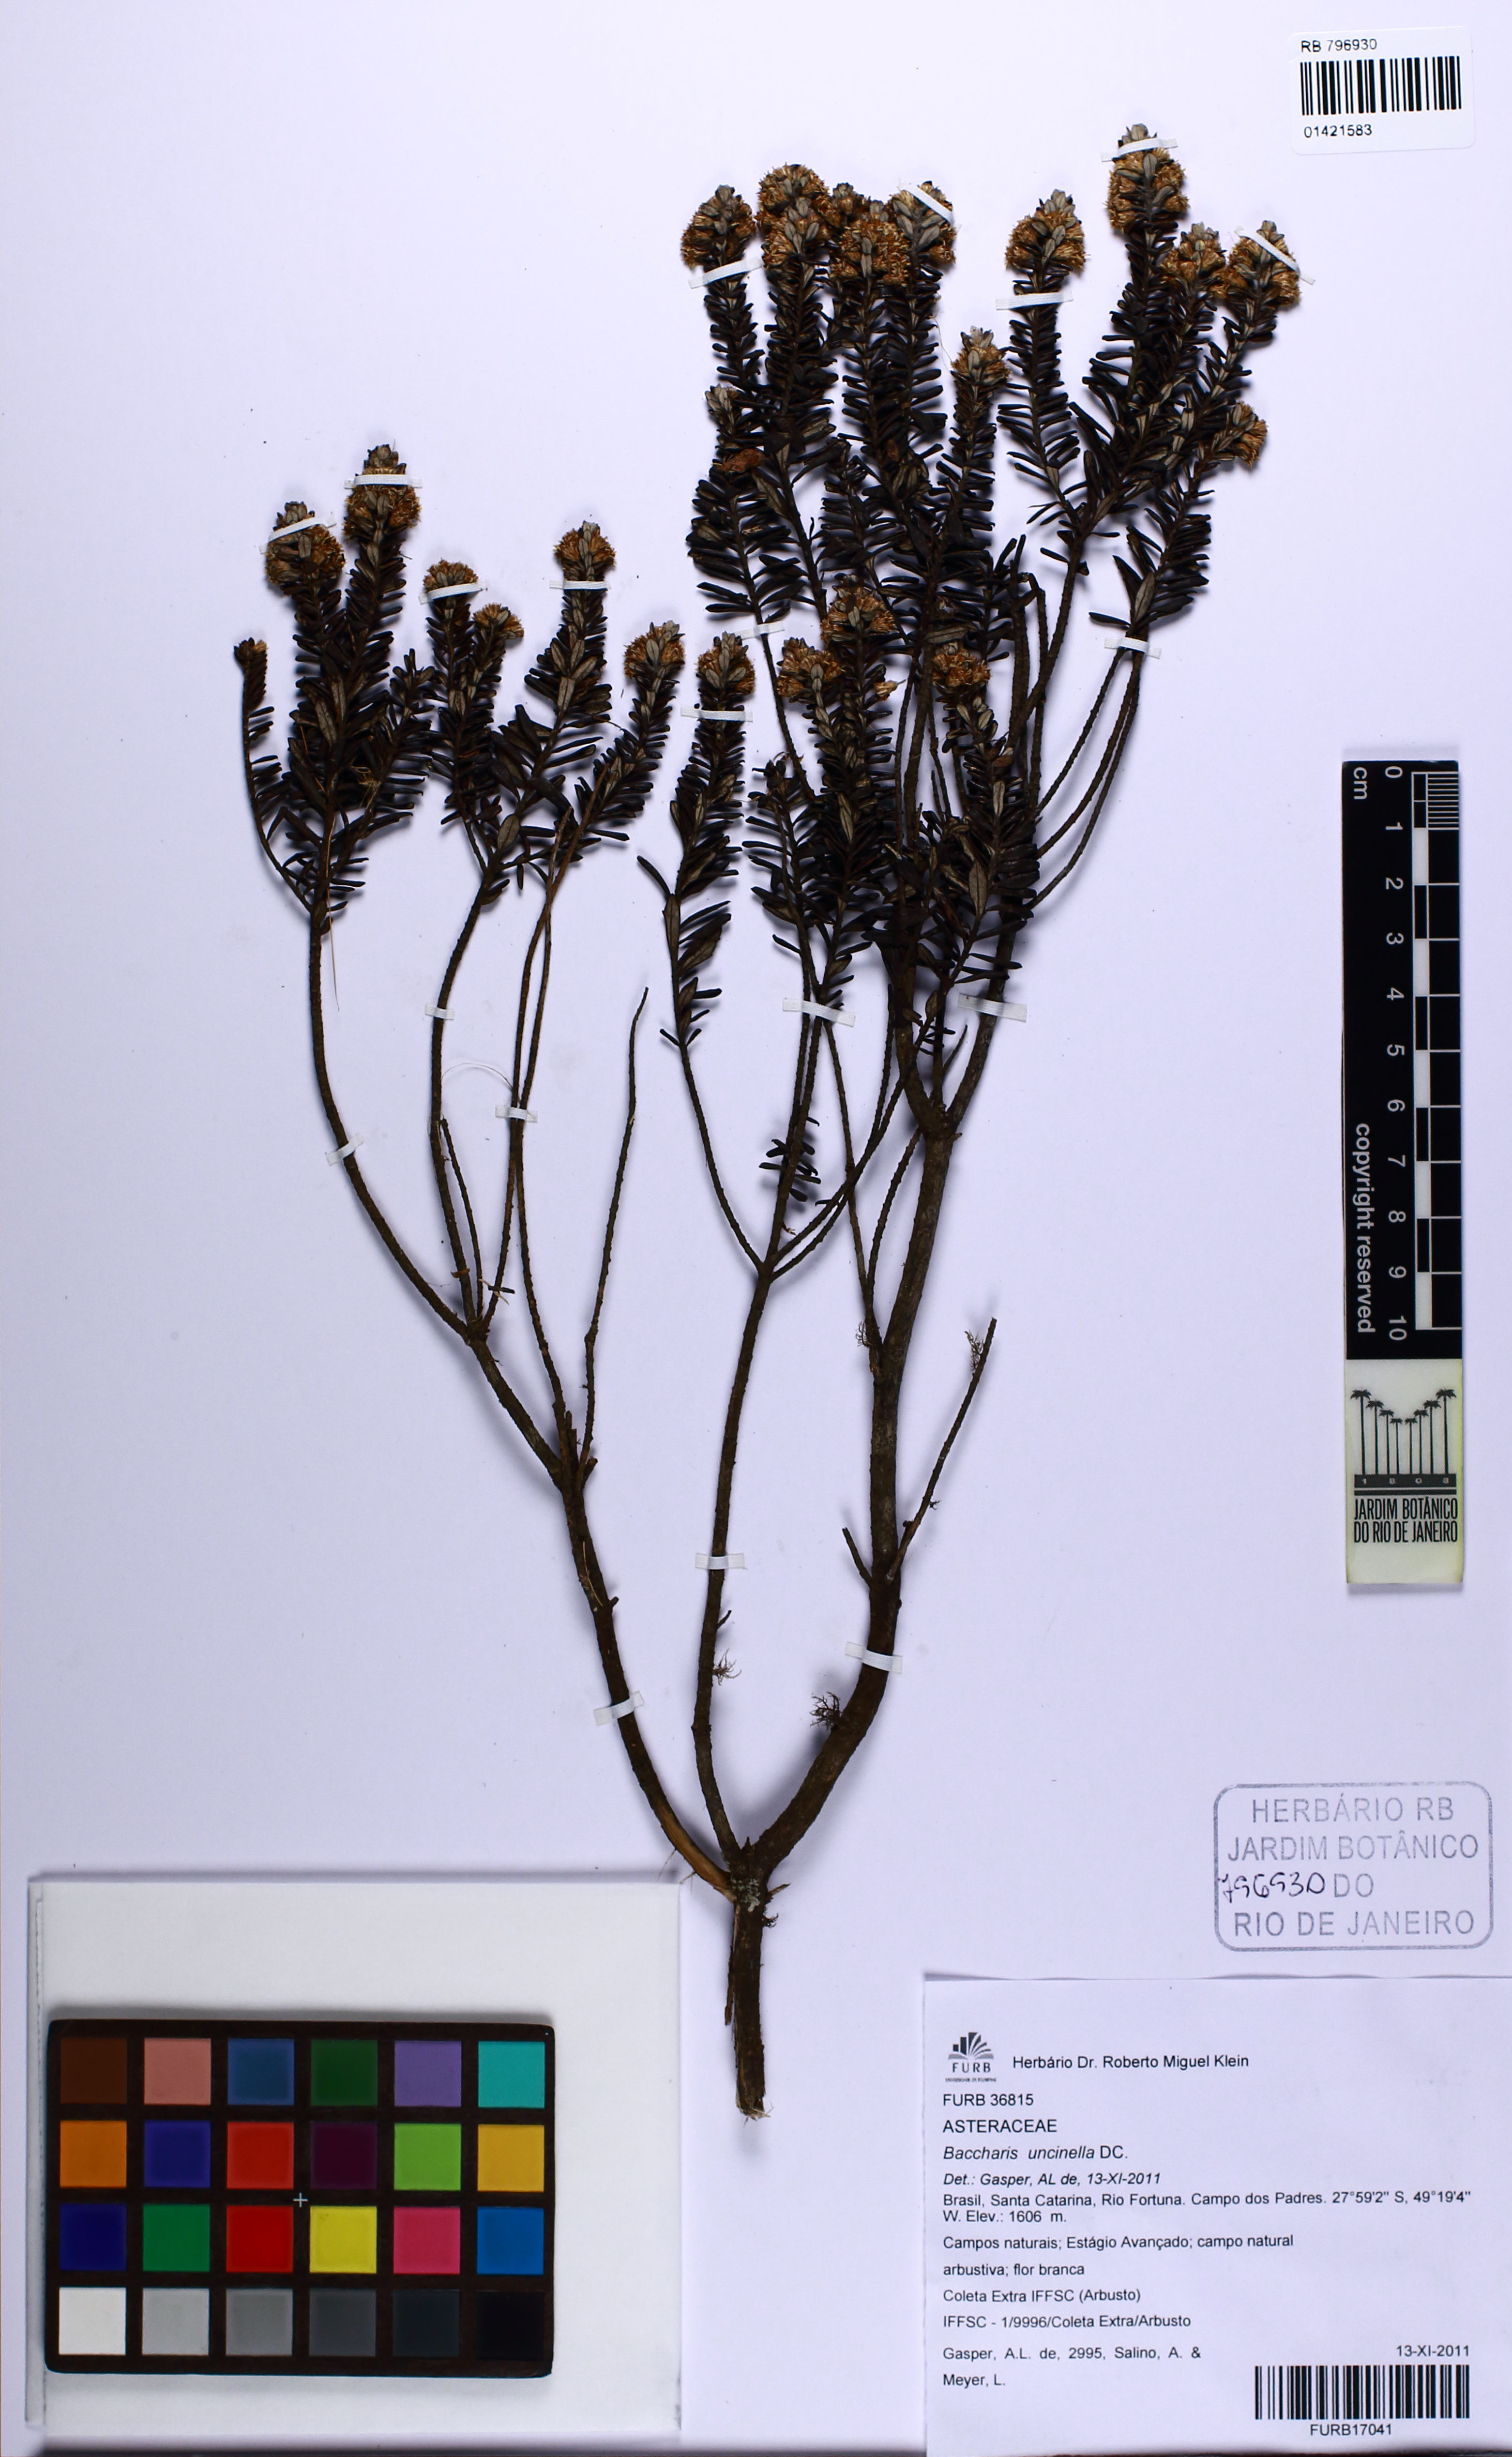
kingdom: Plantae
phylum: Tracheophyta
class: Magnoliopsida
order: Asterales
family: Asteraceae
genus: Baccharis
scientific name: Baccharis uncinella
